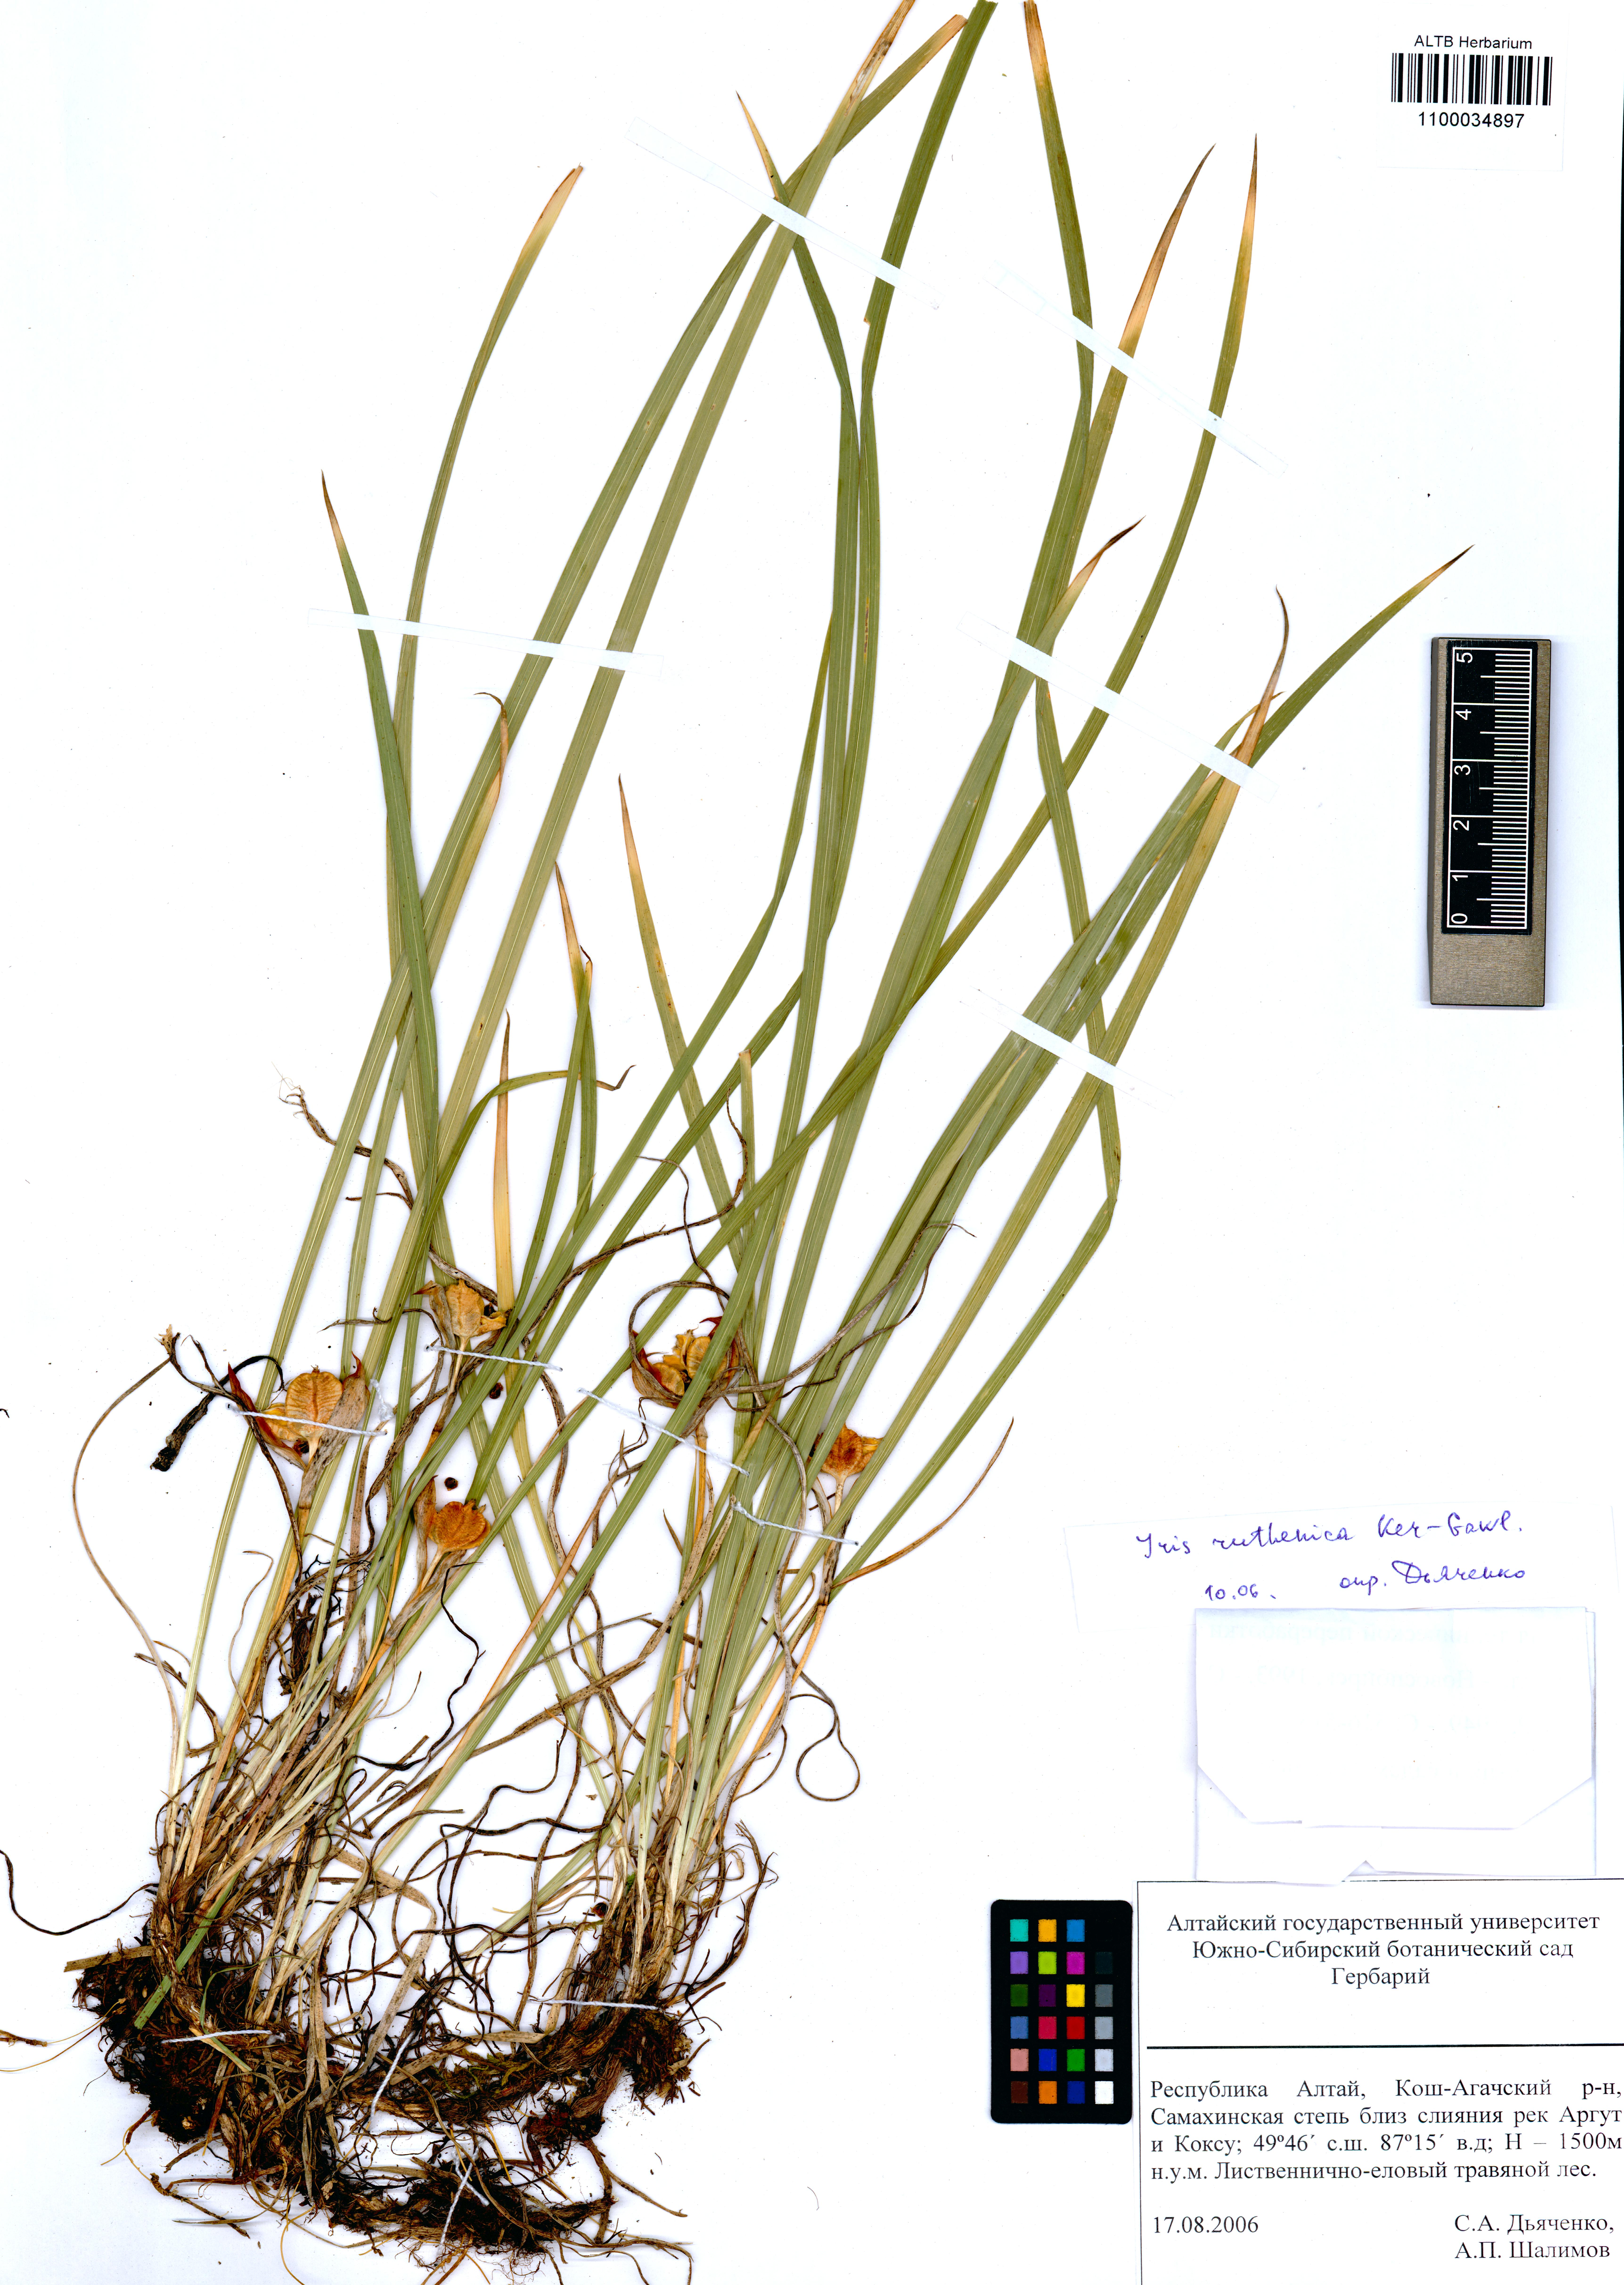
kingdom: Plantae
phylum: Tracheophyta
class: Liliopsida
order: Asparagales
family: Iridaceae
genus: Iris
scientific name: Iris ruthenica
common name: Purple-bract iris
